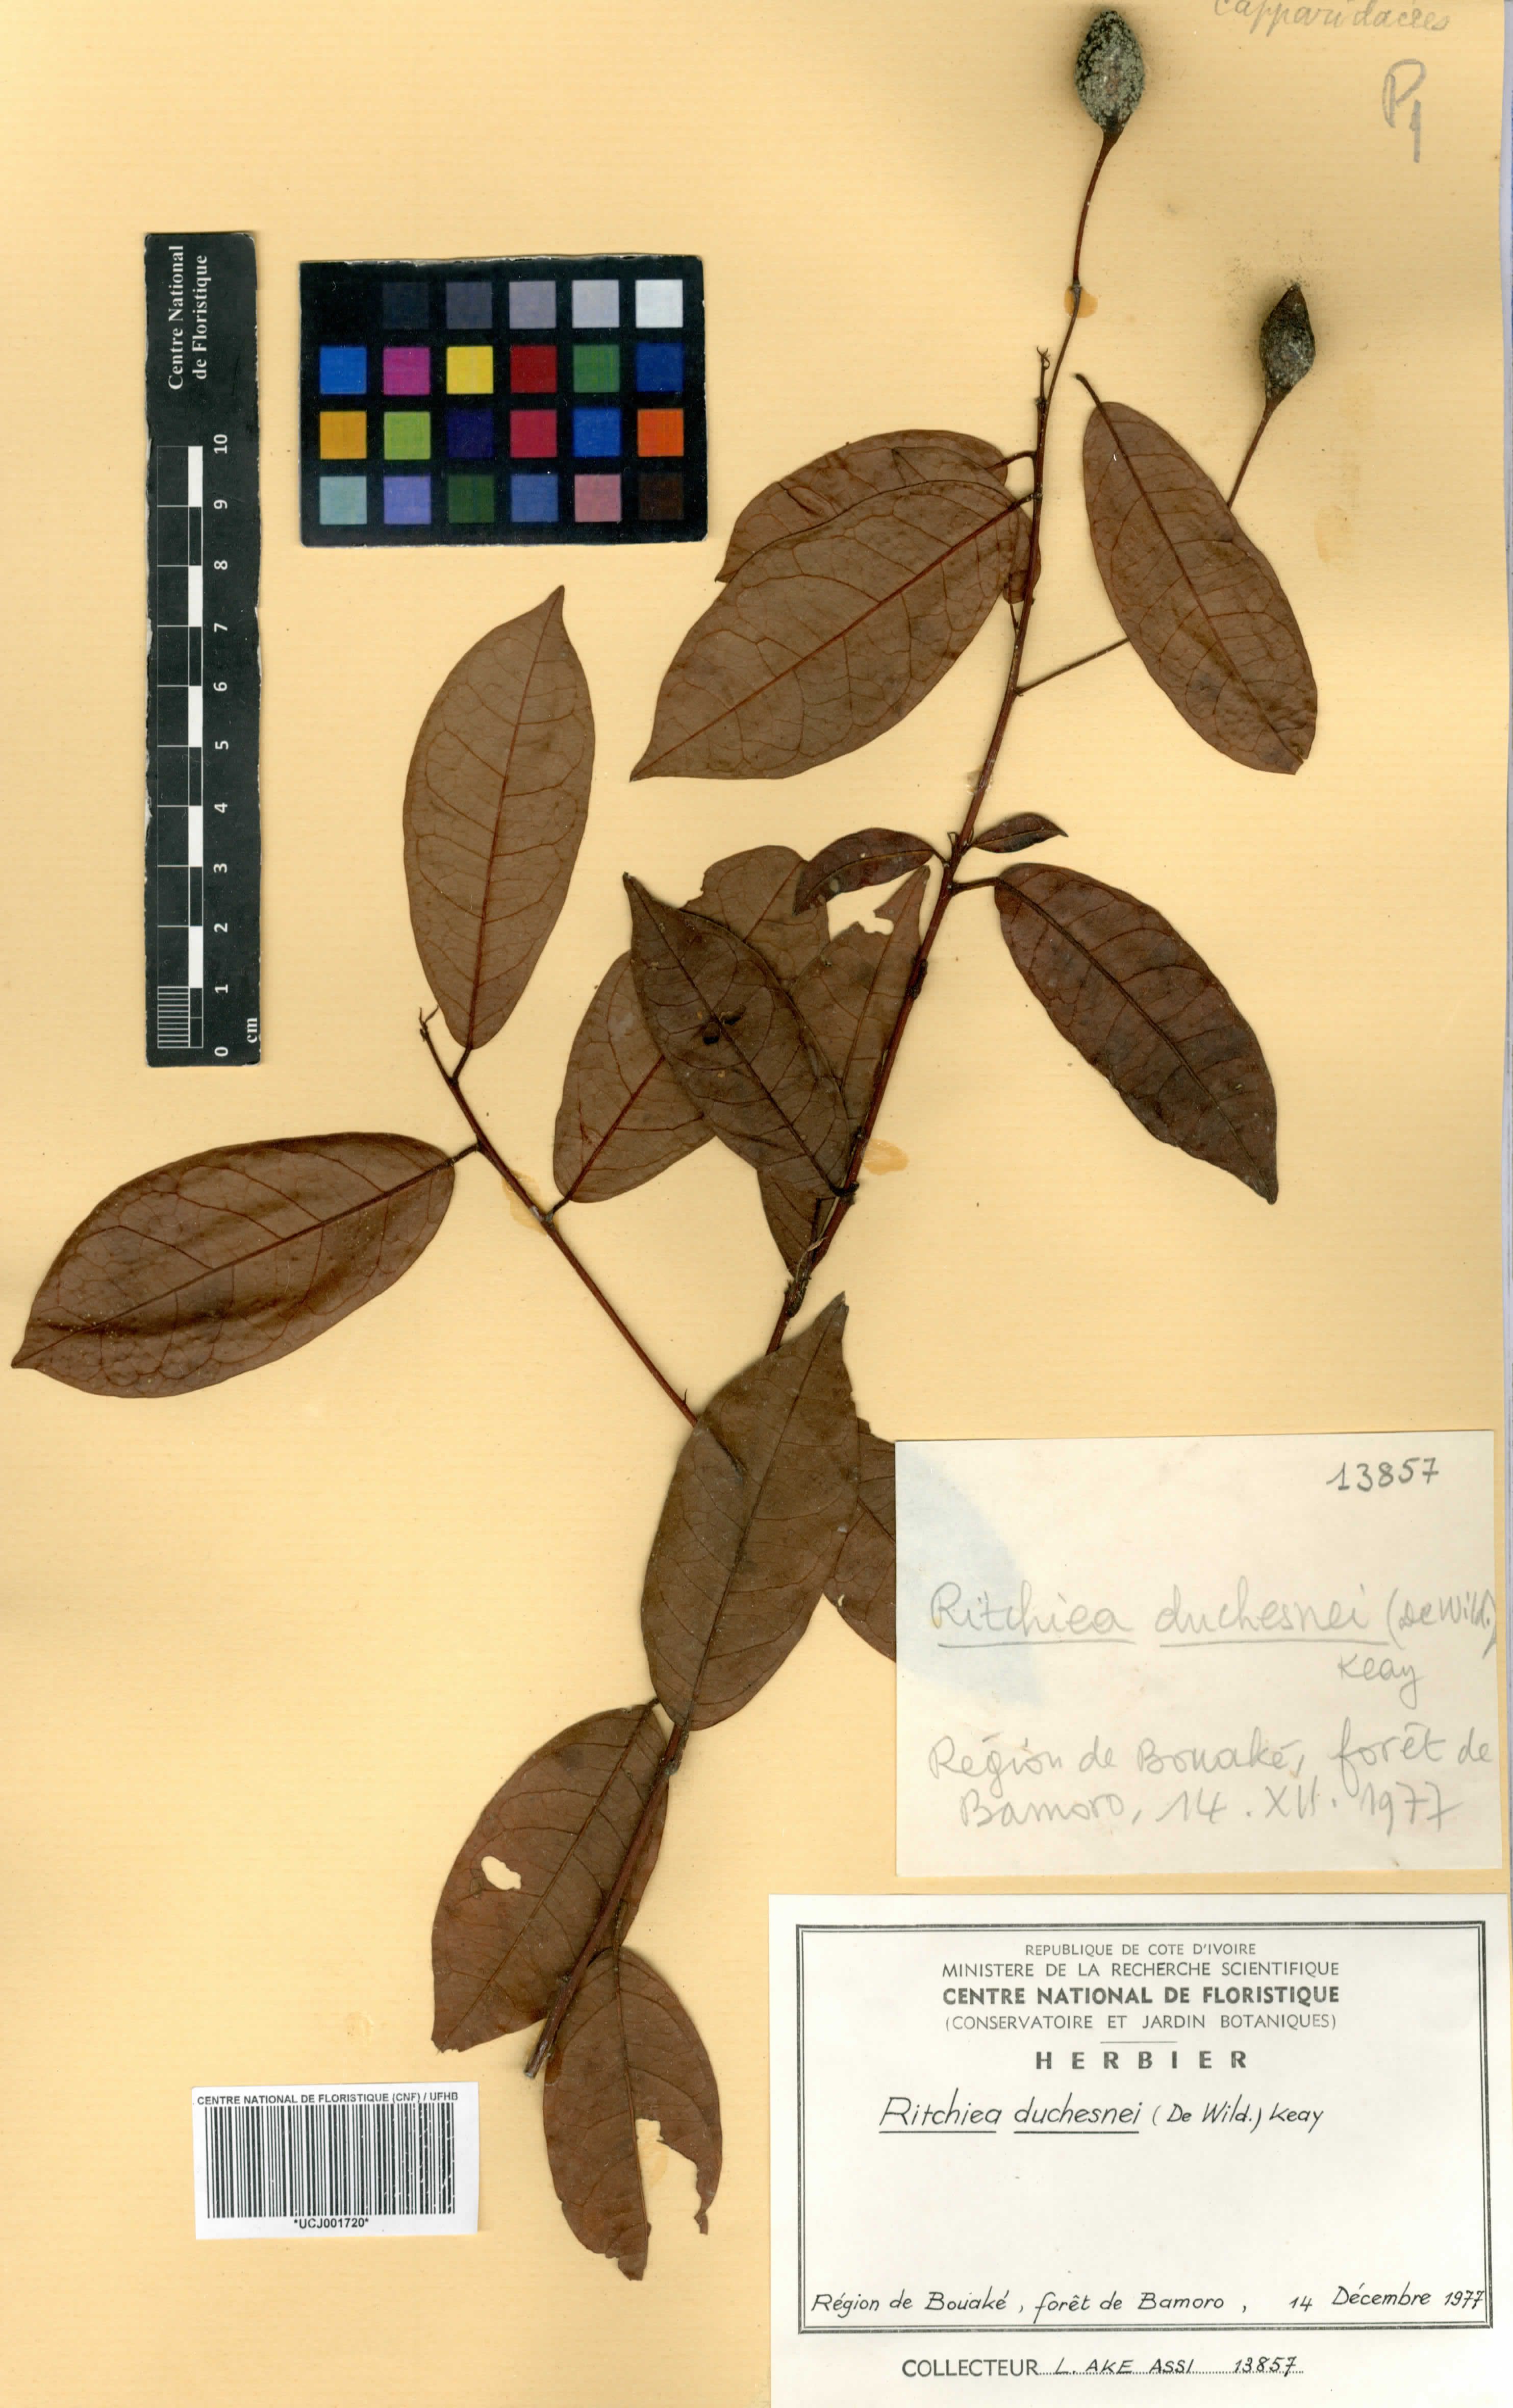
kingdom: Plantae
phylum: Tracheophyta
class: Magnoliopsida
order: Brassicales
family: Capparaceae
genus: Maerua
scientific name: Maerua duchesnei
